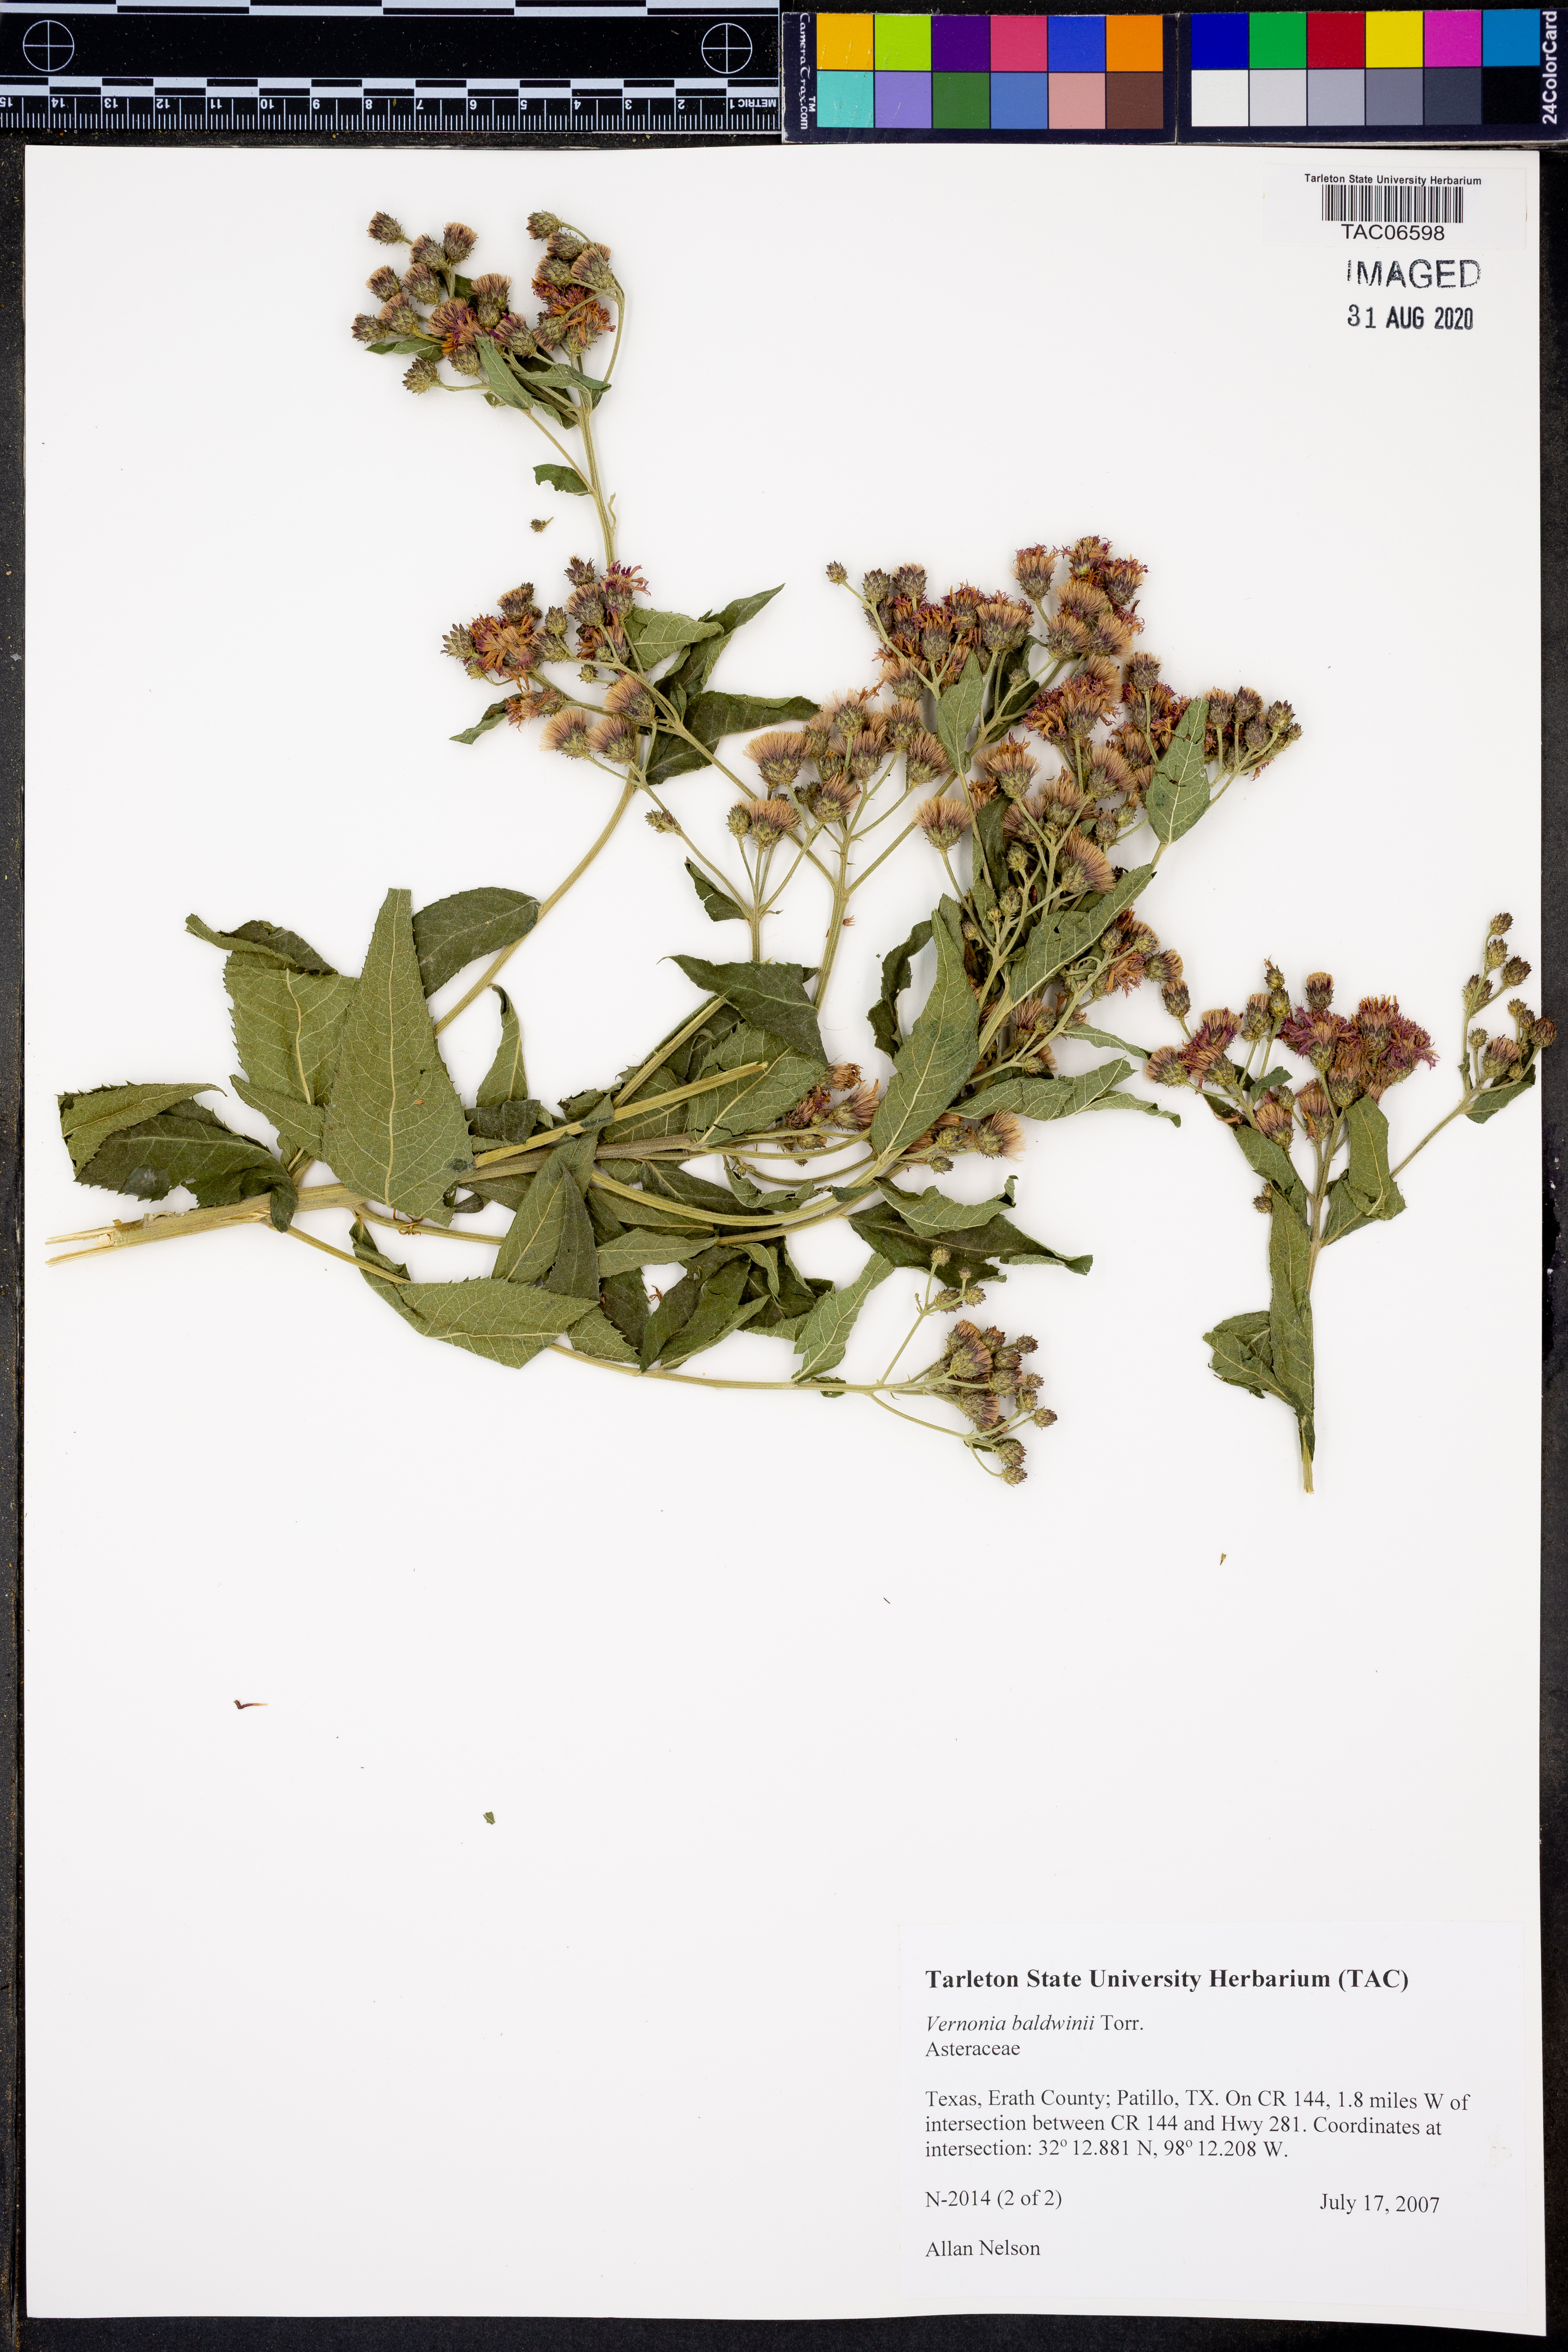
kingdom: Plantae
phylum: Tracheophyta
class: Magnoliopsida
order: Asterales
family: Asteraceae
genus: Vernonia
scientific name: Vernonia baldwinii
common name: Western ironweed
